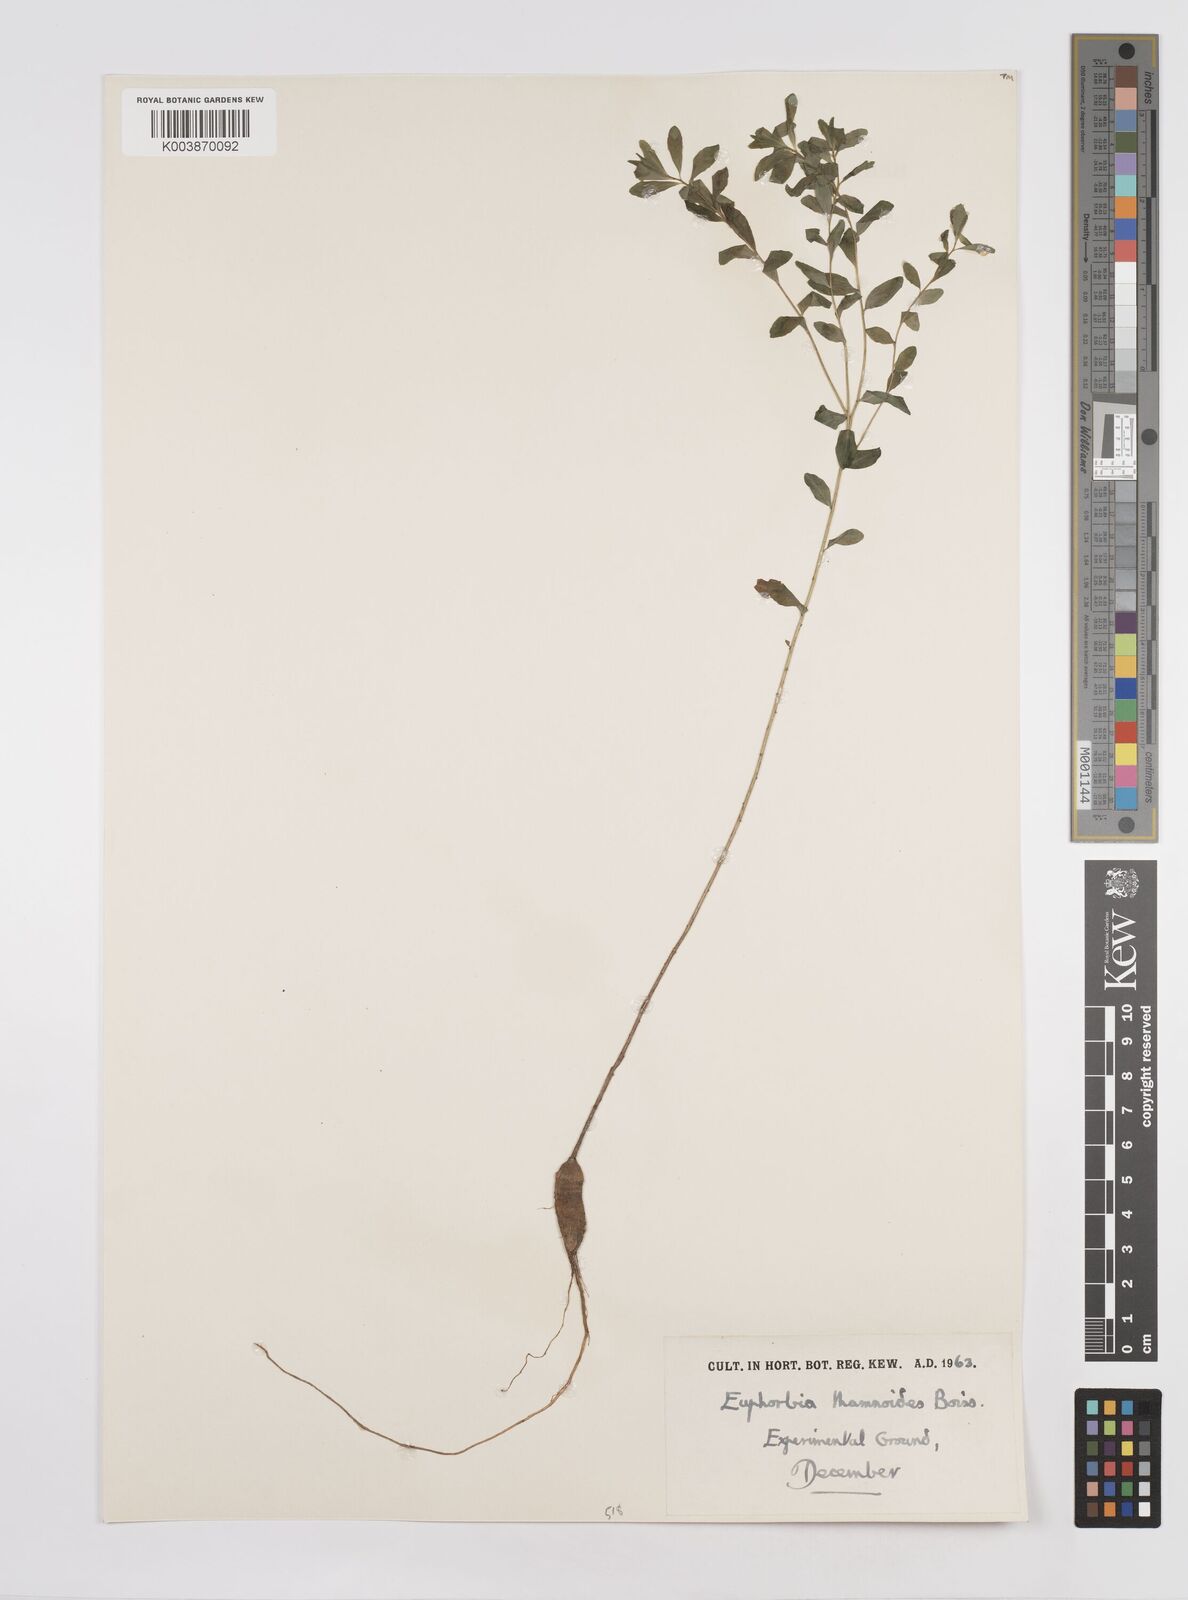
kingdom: Plantae
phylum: Tracheophyta
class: Magnoliopsida
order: Malpighiales
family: Euphorbiaceae
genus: Euphorbia
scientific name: Euphorbia hierosolymitana
